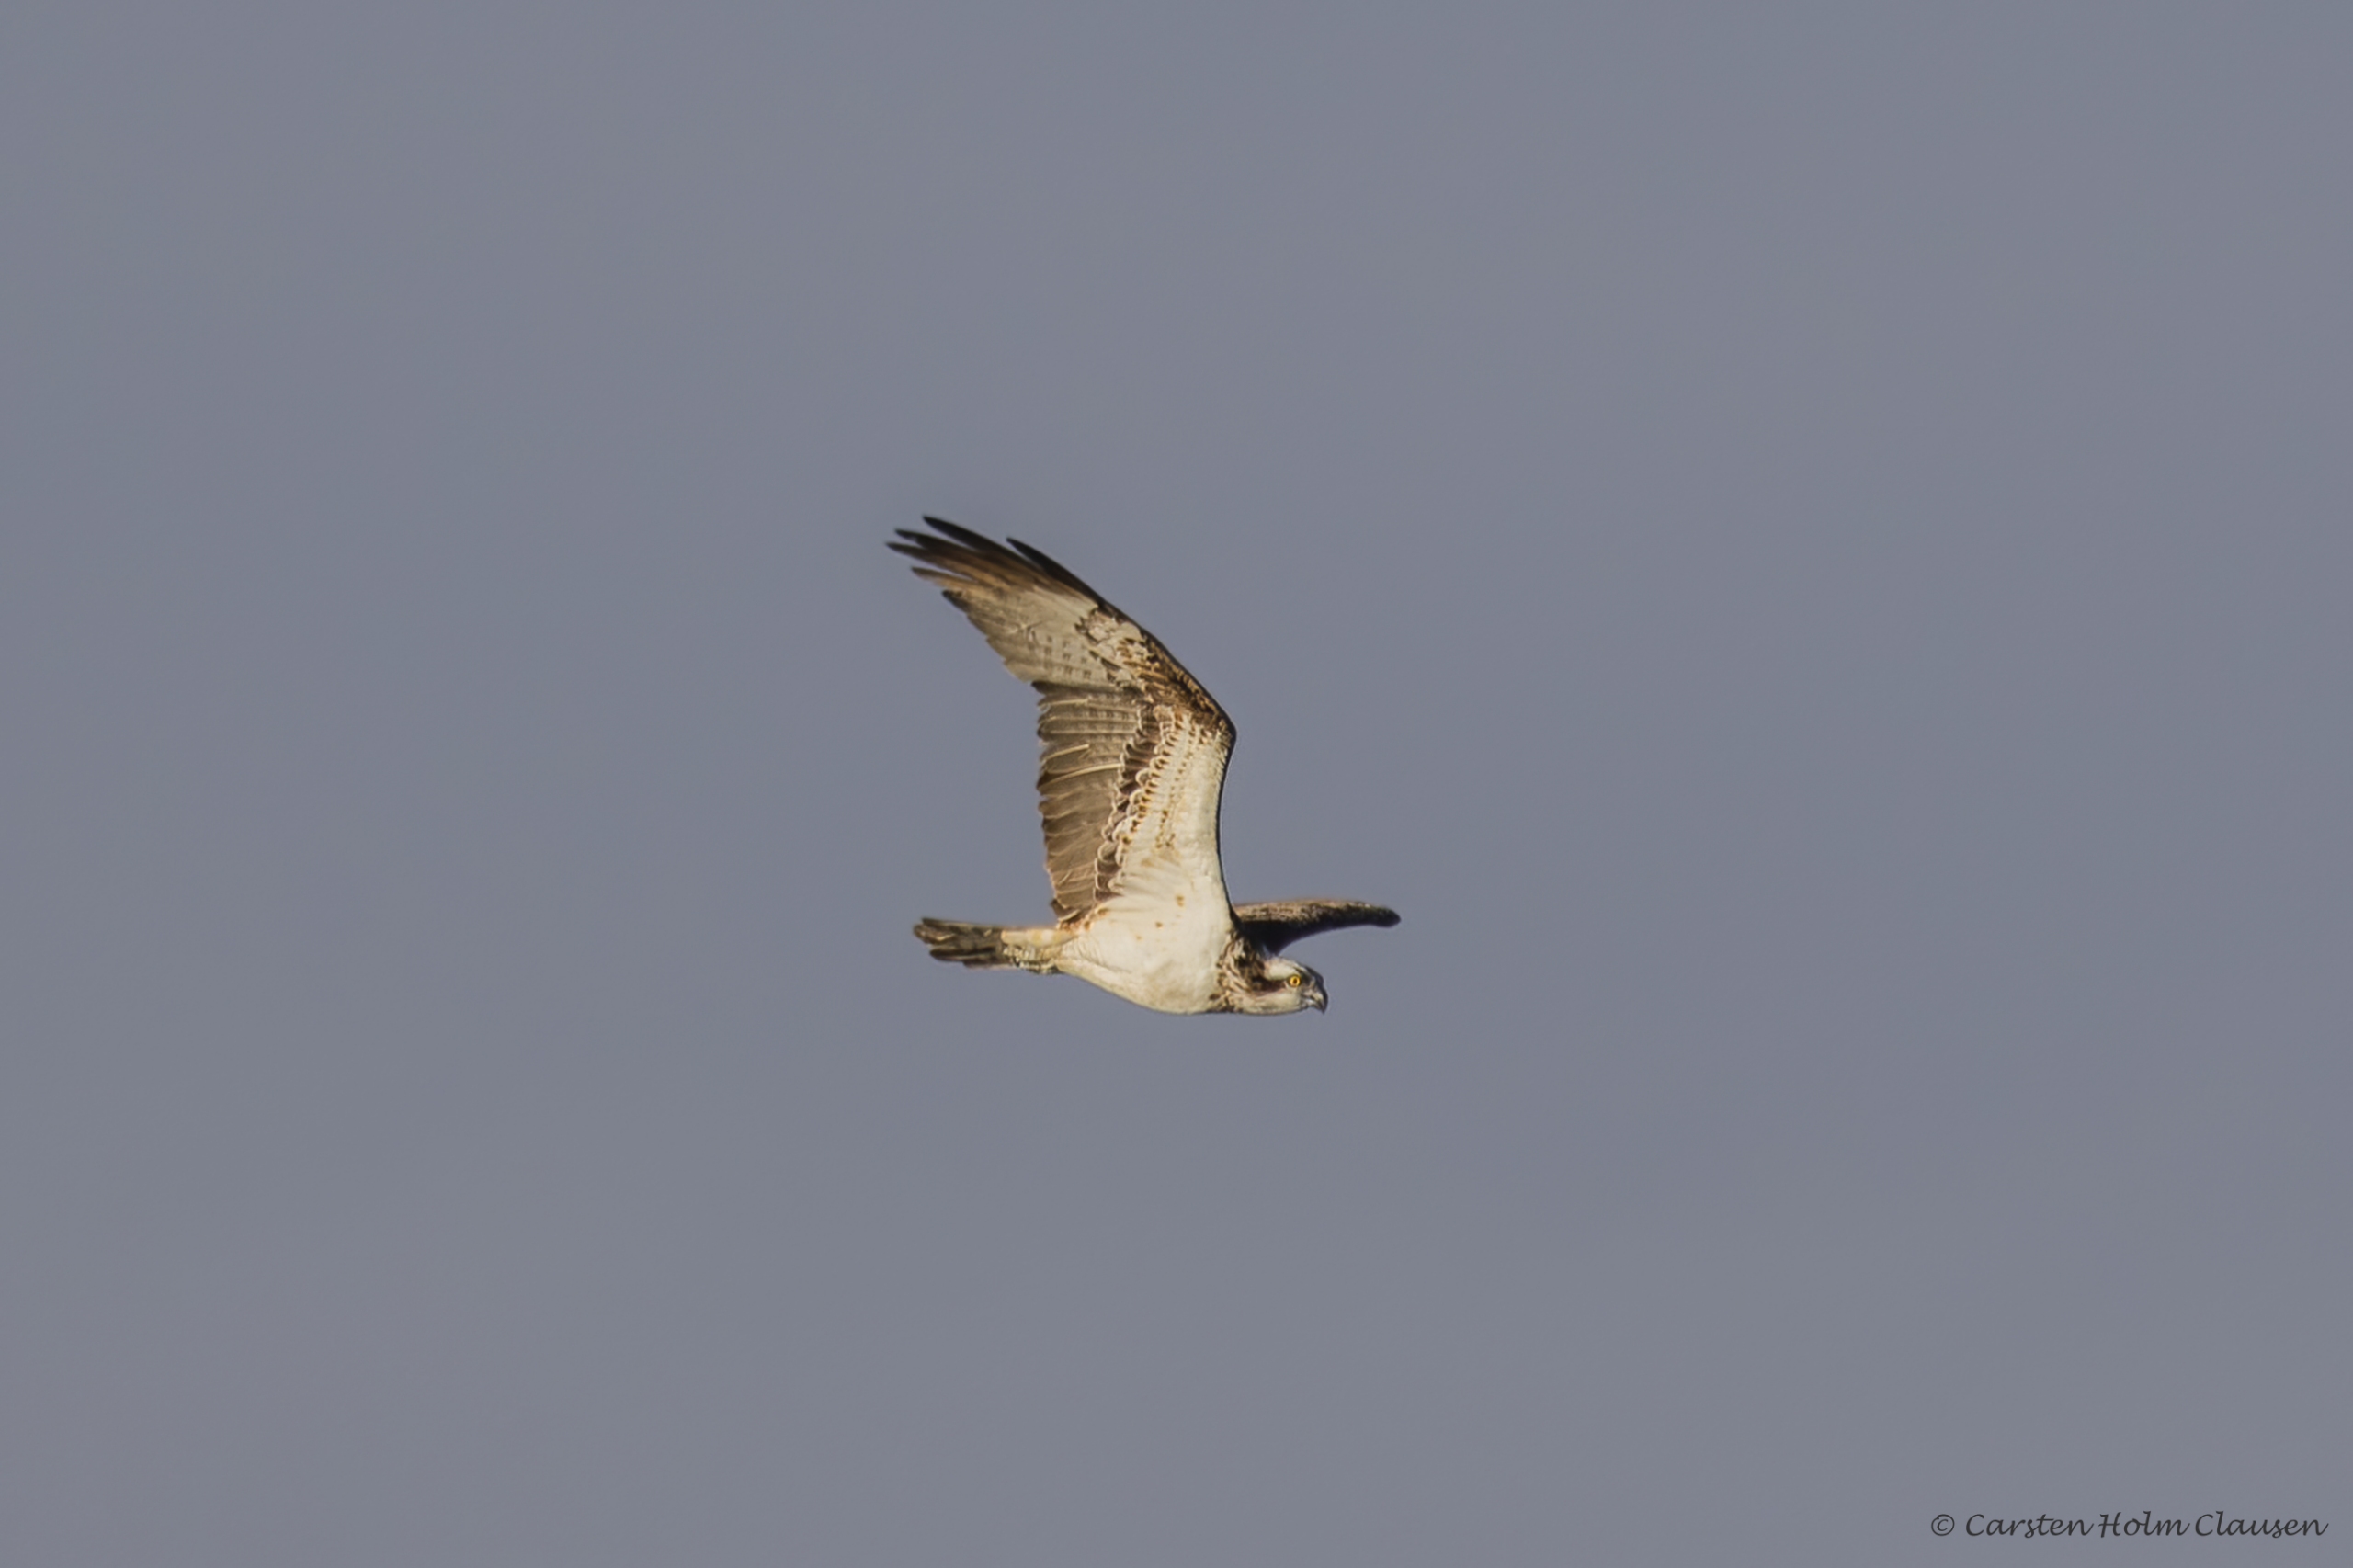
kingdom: Animalia
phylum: Chordata
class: Aves
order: Accipitriformes
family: Pandionidae
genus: Pandion
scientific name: Pandion haliaetus
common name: Fiskeørn
